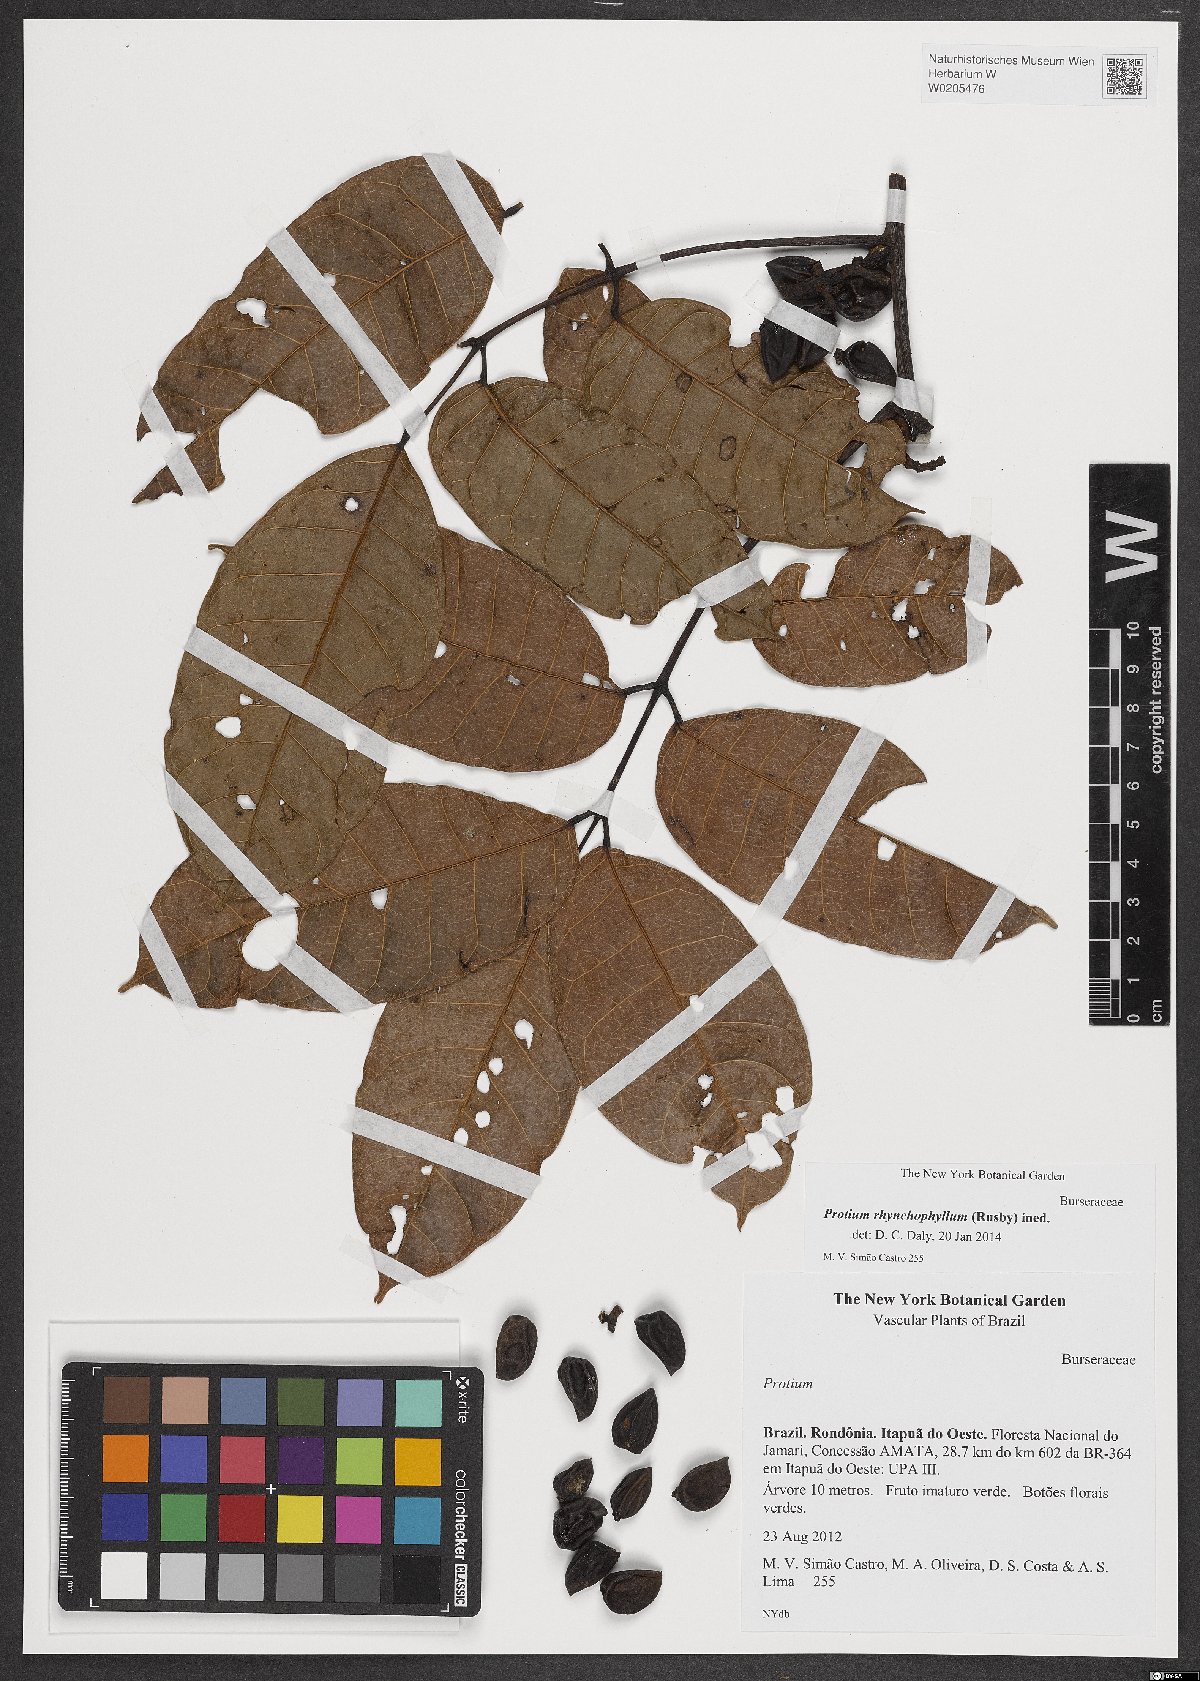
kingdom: Plantae
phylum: Tracheophyta
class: Magnoliopsida
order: Sapindales
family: Burseraceae
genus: Protium
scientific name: Protium rhynchophyllum
